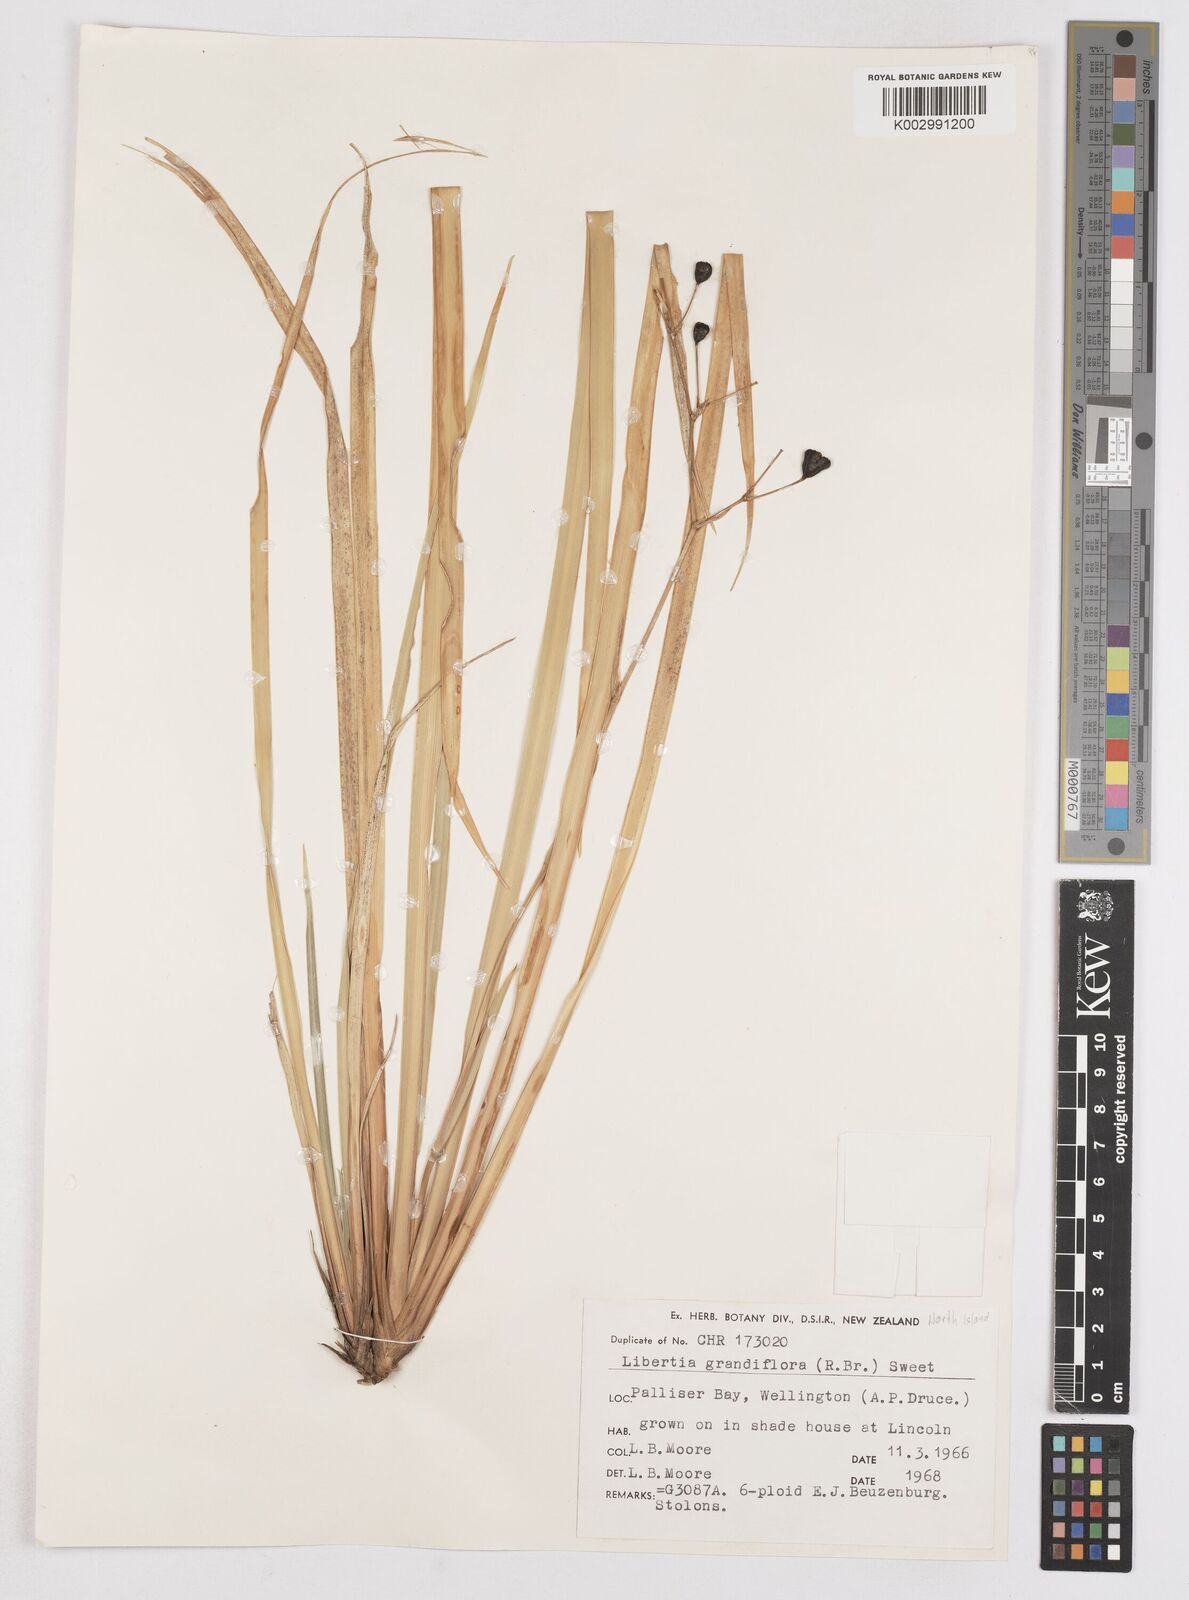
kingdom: Plantae
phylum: Tracheophyta
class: Liliopsida
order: Asparagales
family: Iridaceae
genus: Libertia
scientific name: Libertia grandiflora
